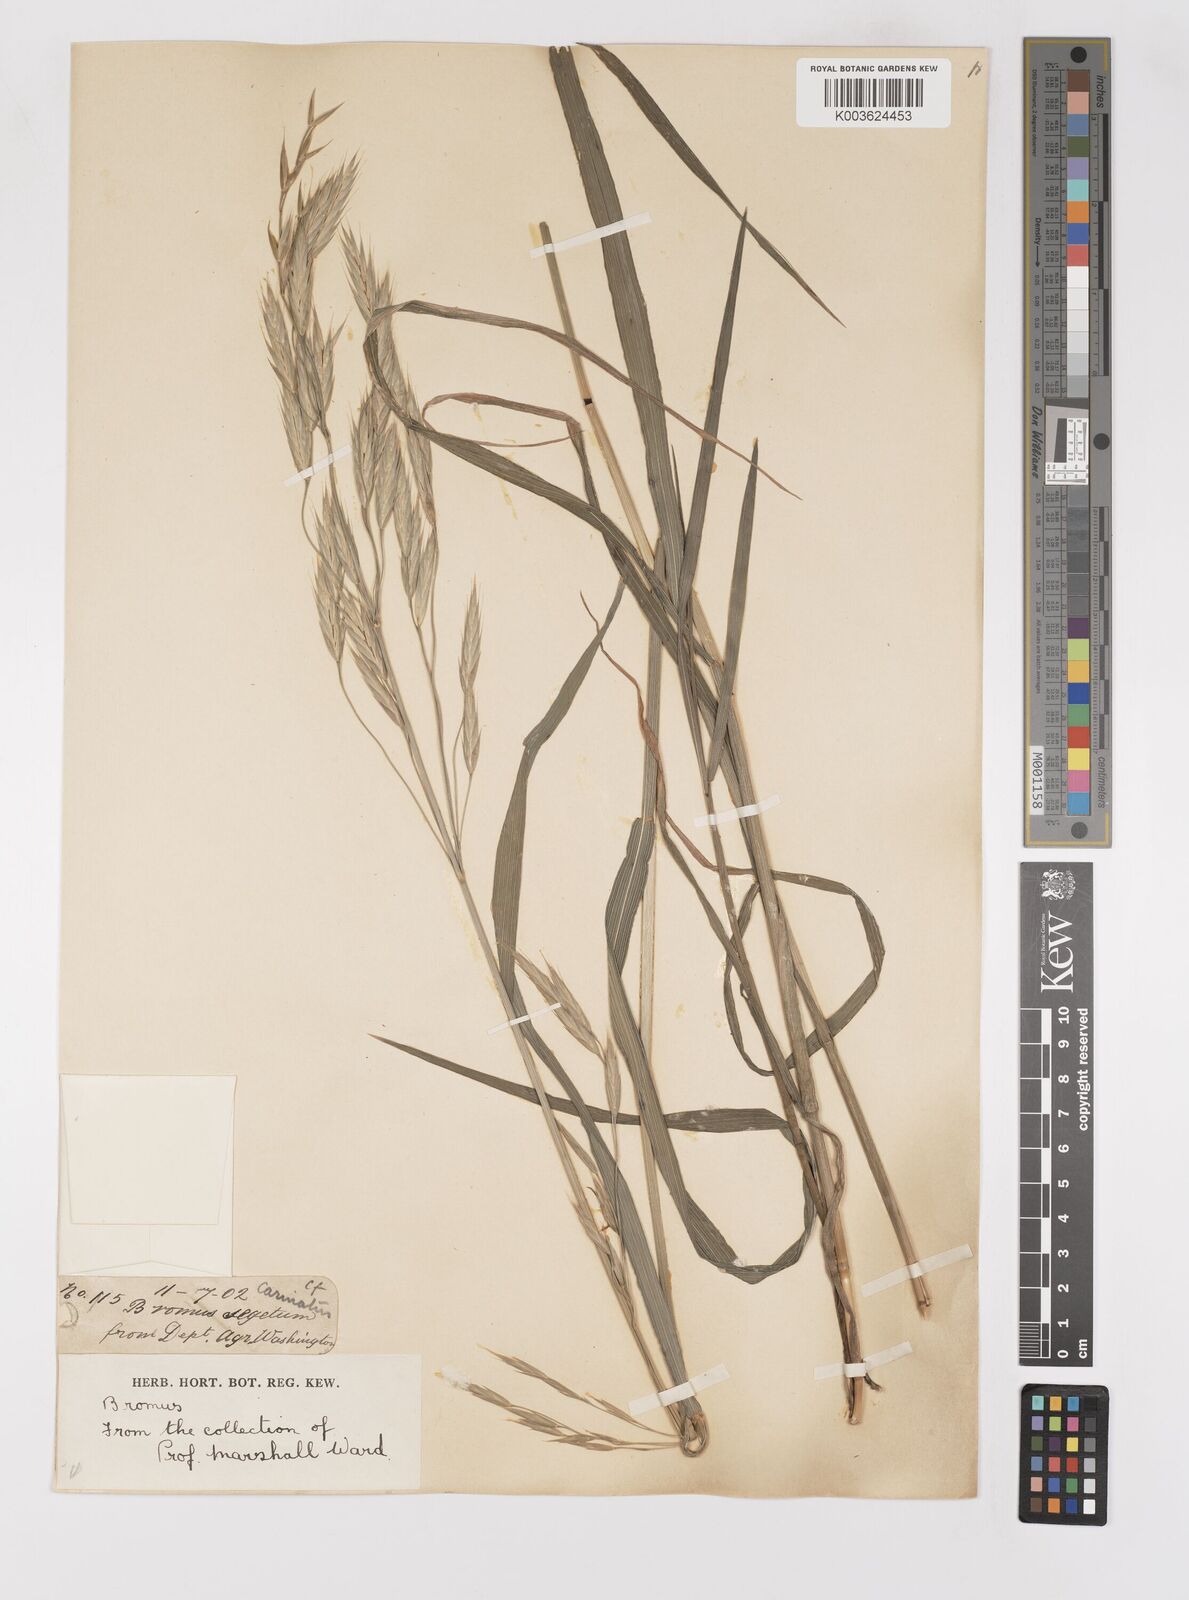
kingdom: Plantae
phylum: Tracheophyta
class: Liliopsida
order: Poales
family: Poaceae
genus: Bromus
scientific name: Bromus
